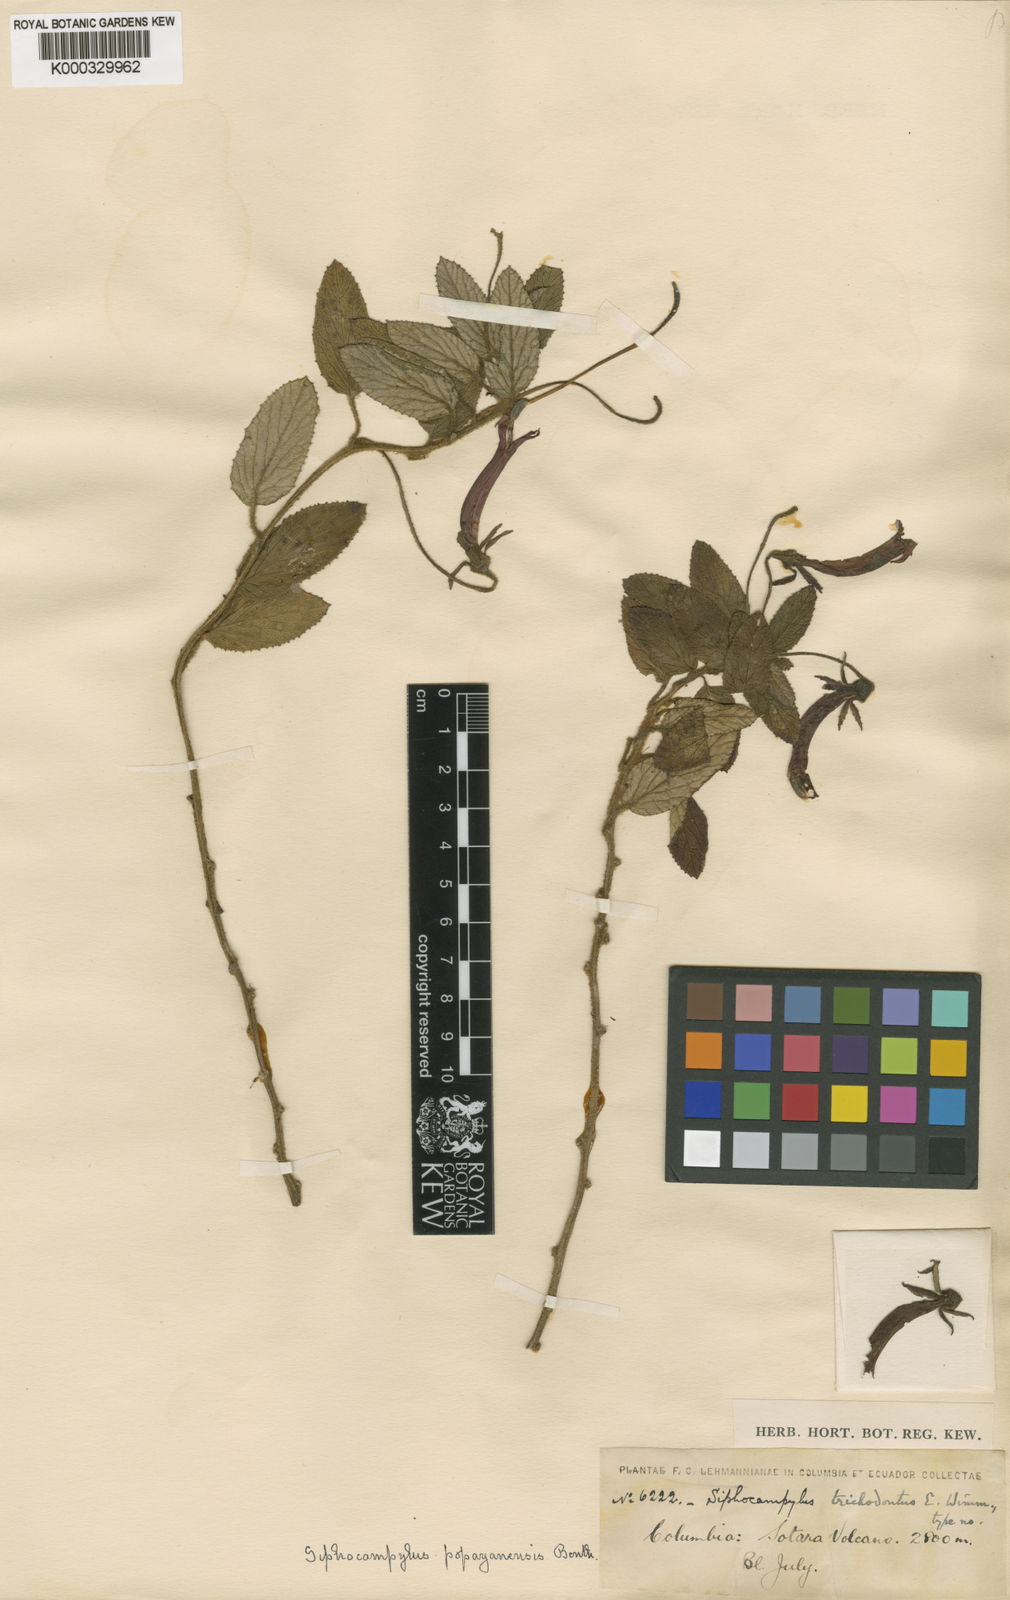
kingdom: Plantae
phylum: Tracheophyta
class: Magnoliopsida
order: Asterales
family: Campanulaceae
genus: Siphocampylus
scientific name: Siphocampylus popayanensis
